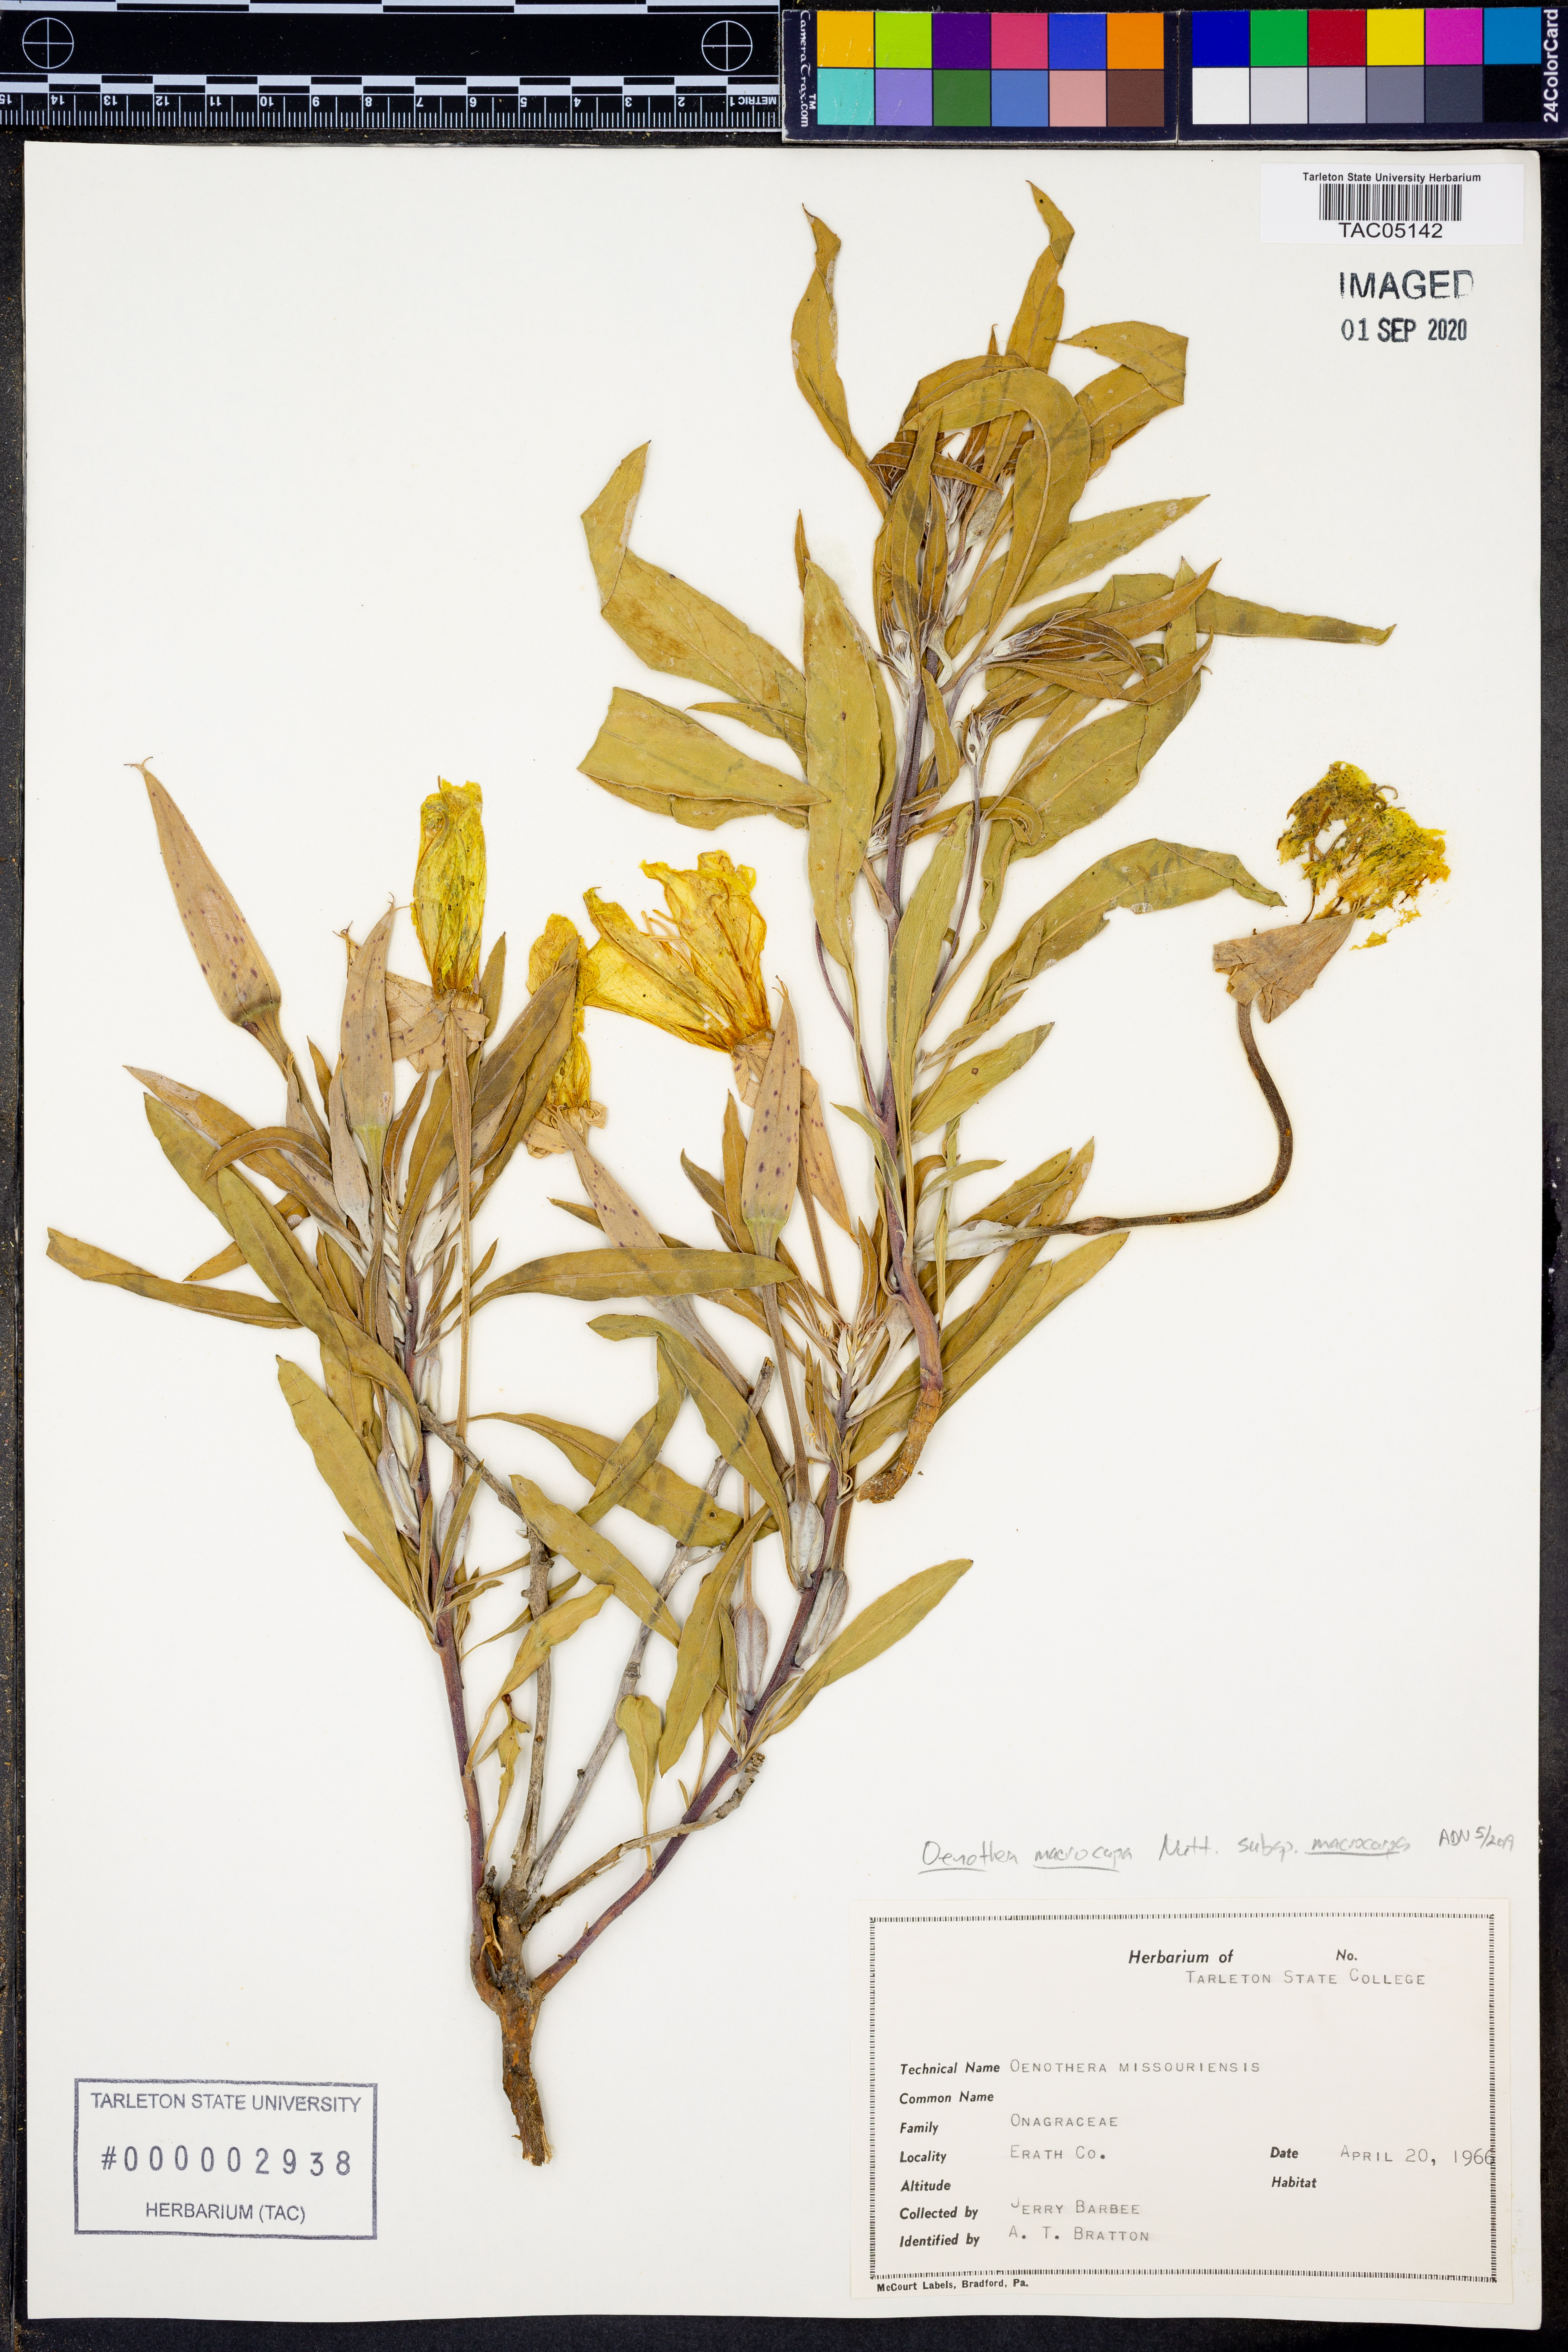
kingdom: Plantae
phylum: Tracheophyta
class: Magnoliopsida
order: Myrtales
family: Onagraceae
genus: Oenothera
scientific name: Oenothera macrocarpa
